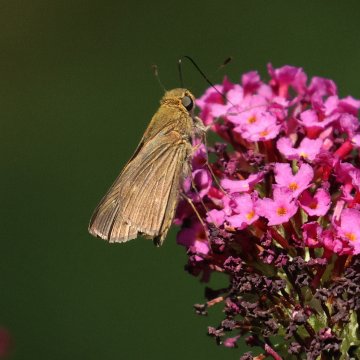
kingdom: Animalia
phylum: Arthropoda
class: Insecta
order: Lepidoptera
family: Hesperiidae
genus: Panoquina
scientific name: Panoquina ocola
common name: Ocola Skipper
